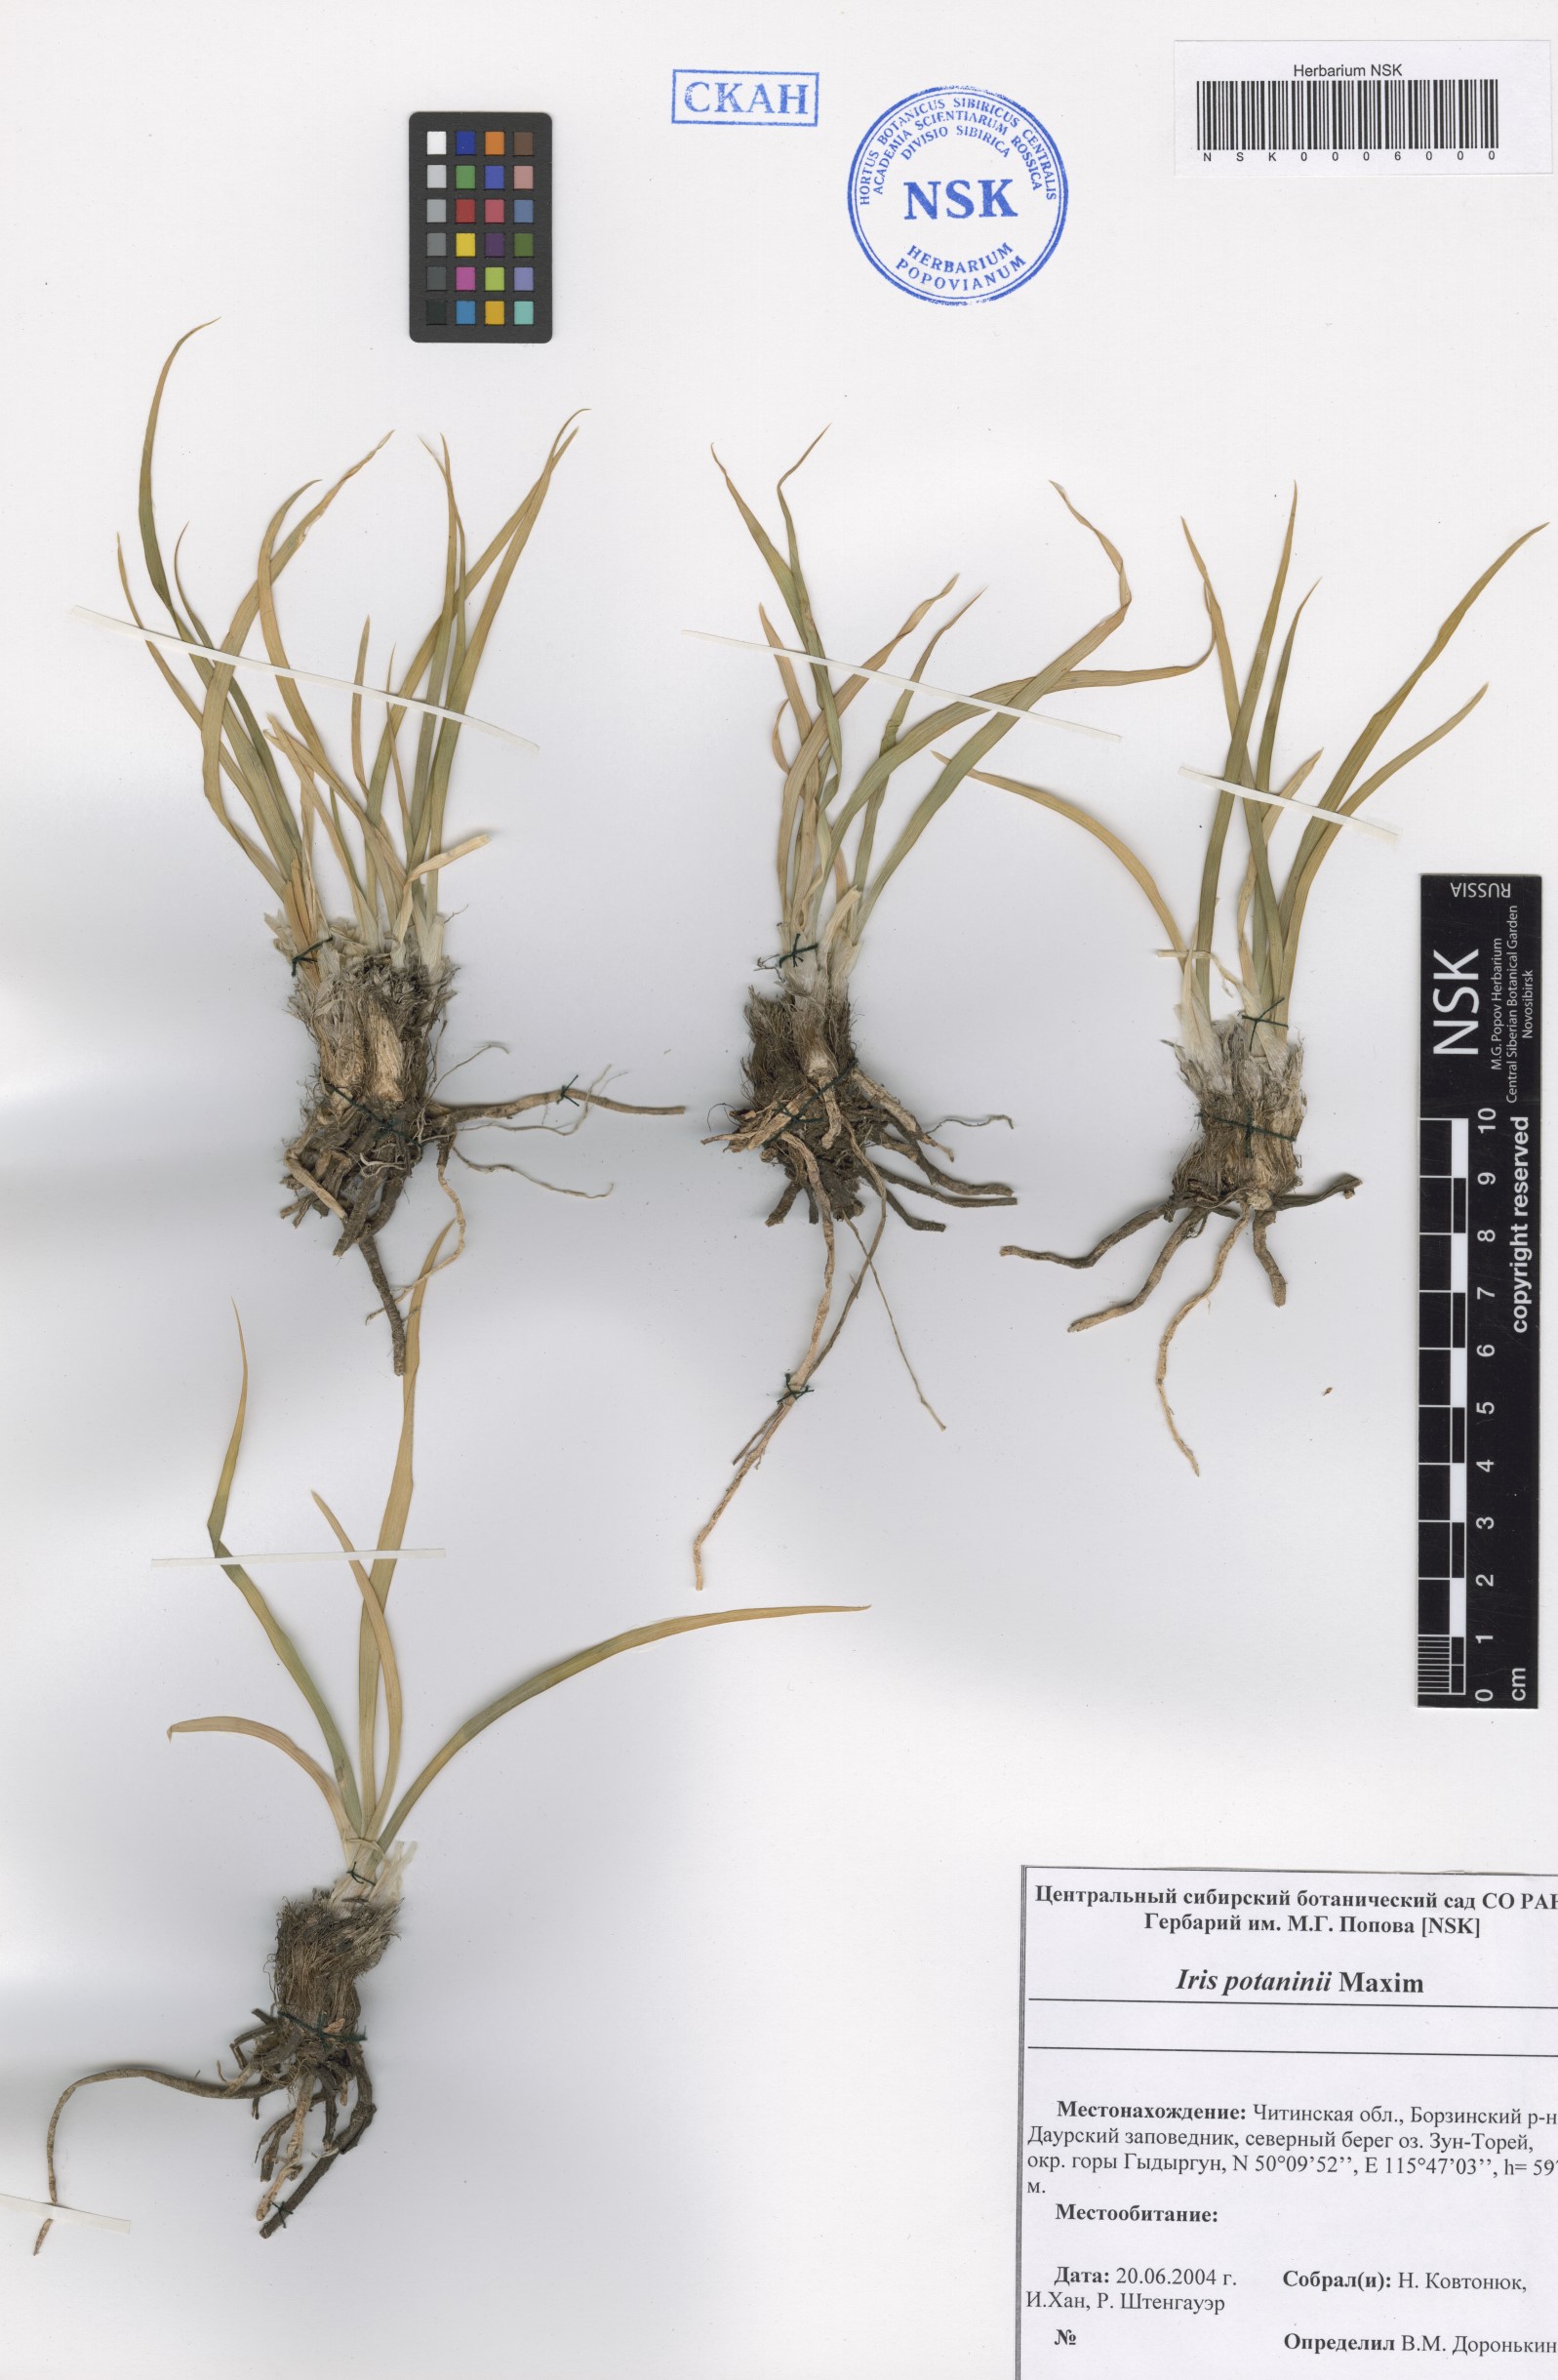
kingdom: Plantae
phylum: Tracheophyta
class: Liliopsida
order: Asparagales
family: Iridaceae
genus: Iris
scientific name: Iris potaninii
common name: Curl-sheath iris
